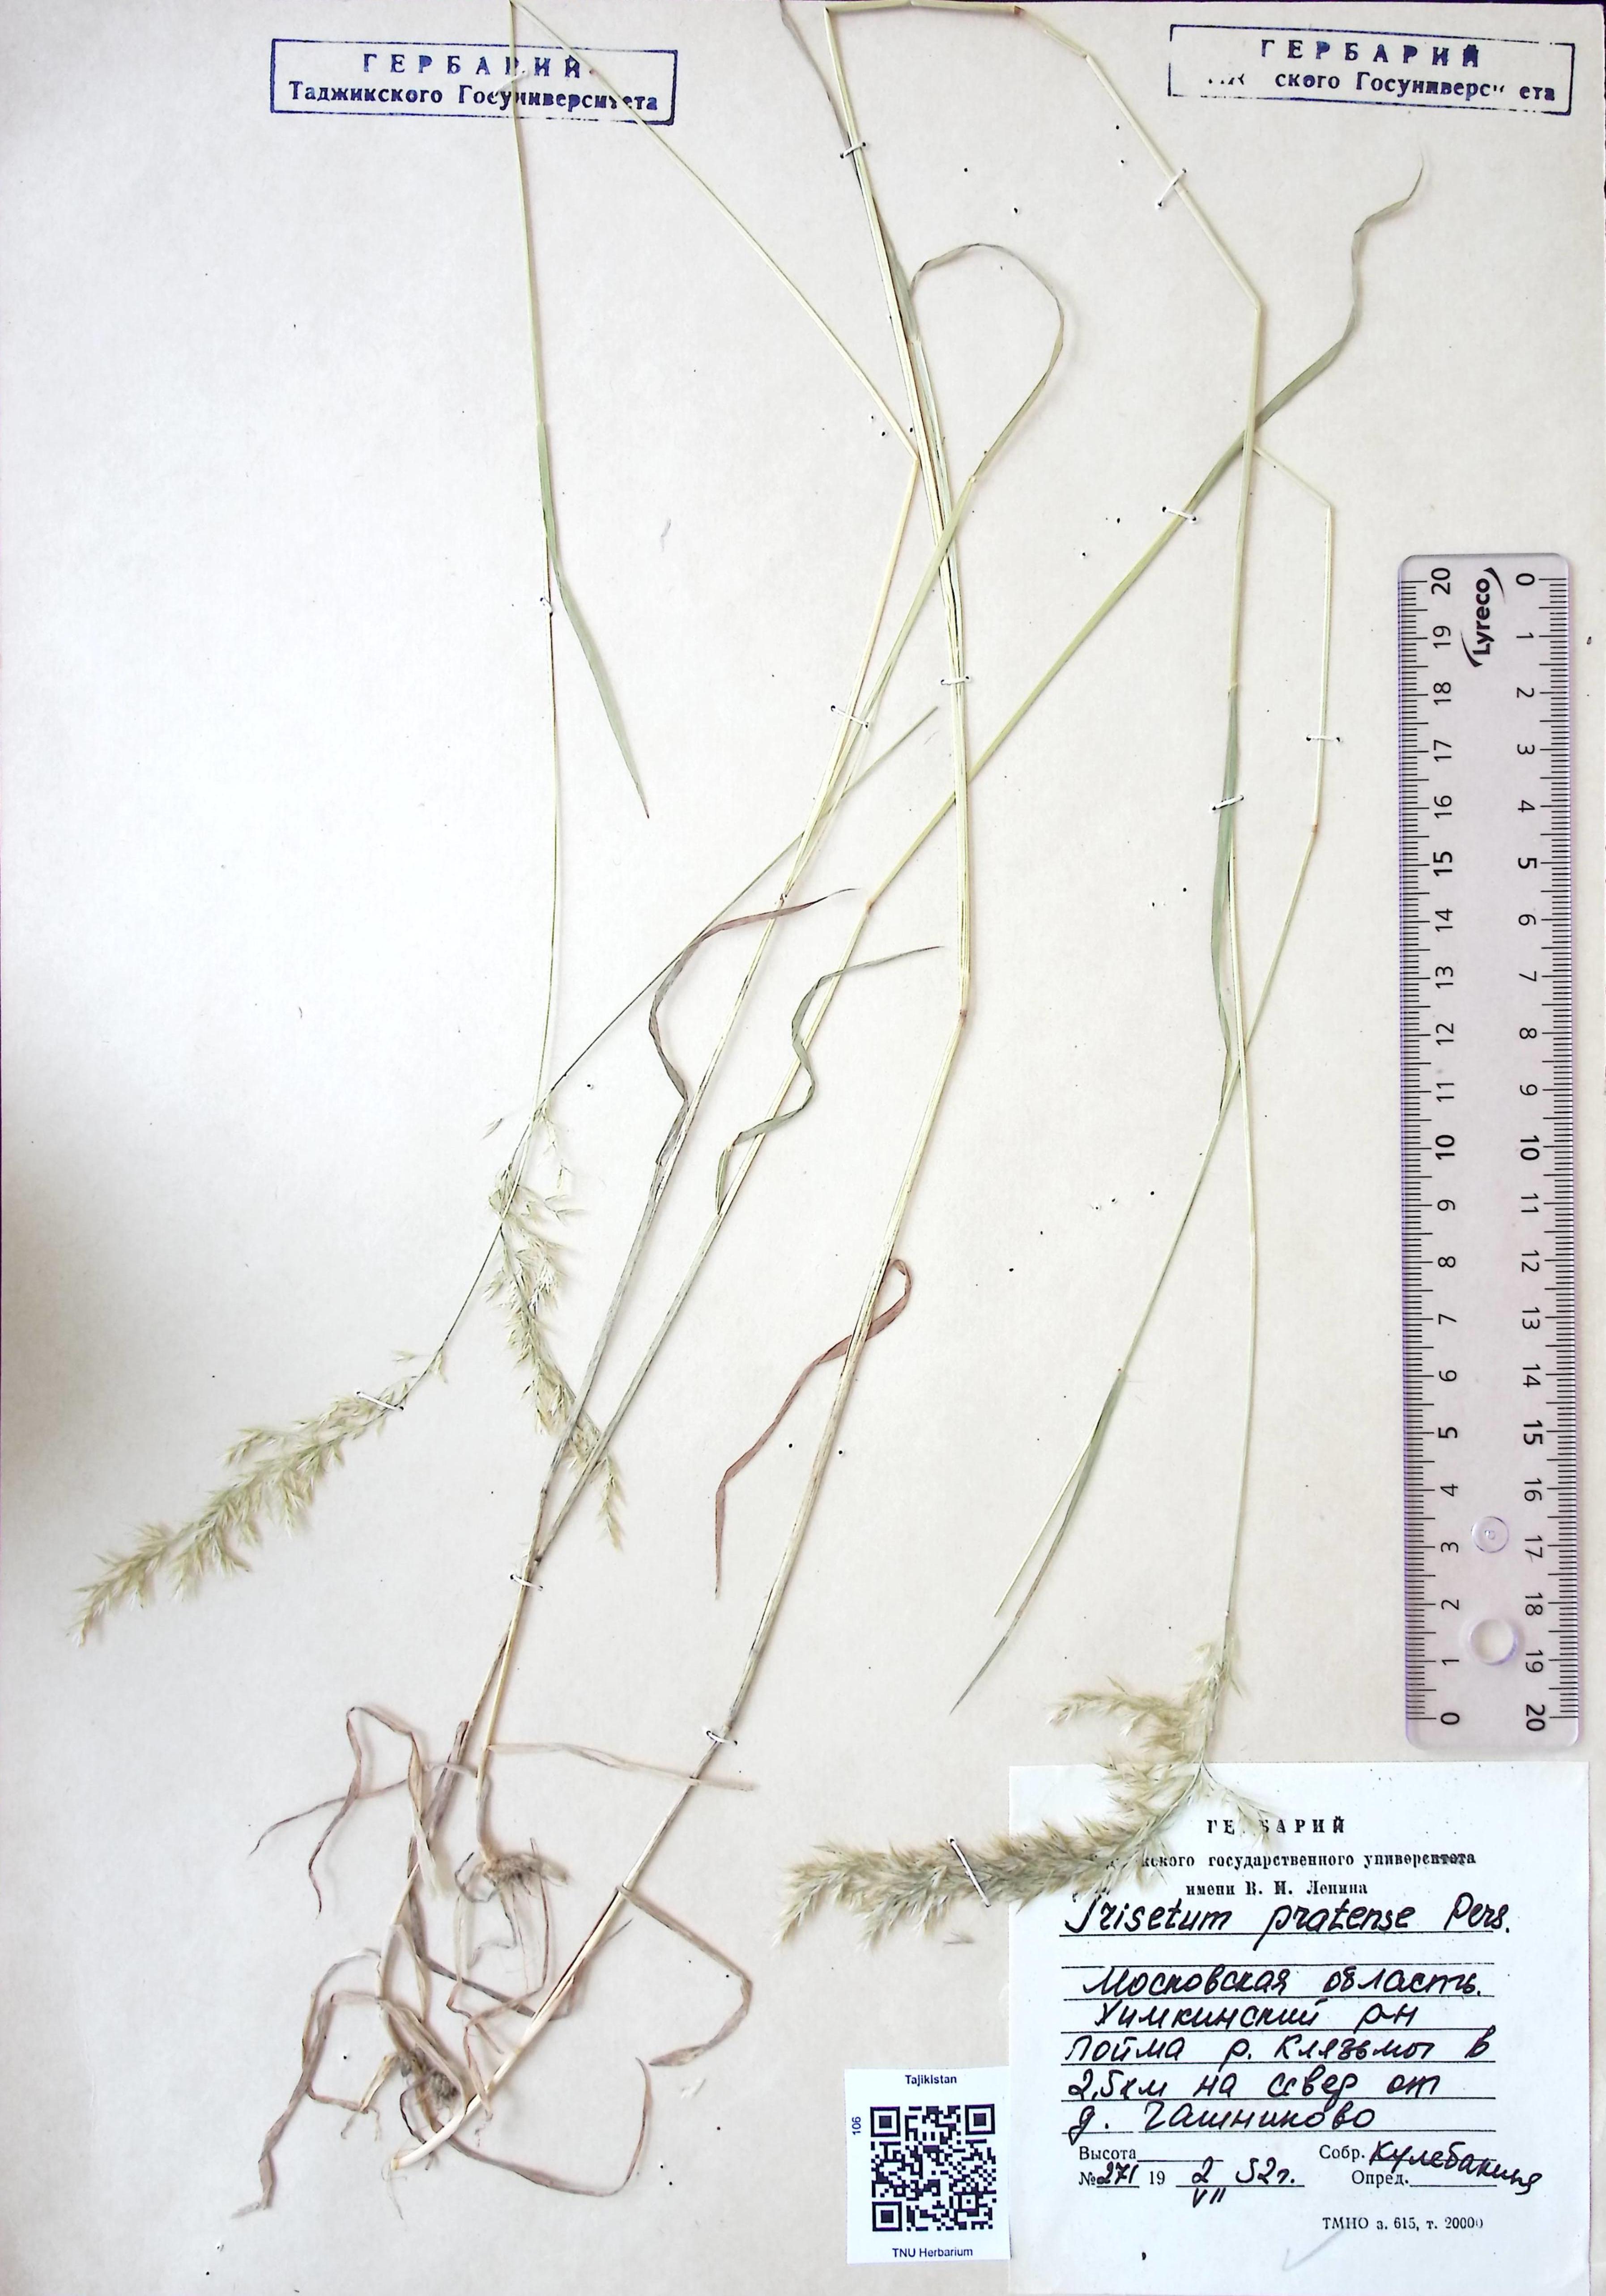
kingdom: Plantae
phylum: Tracheophyta
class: Liliopsida
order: Poales
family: Poaceae
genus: Trisetum
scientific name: Trisetum flavescens
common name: Yellow oat-grass
